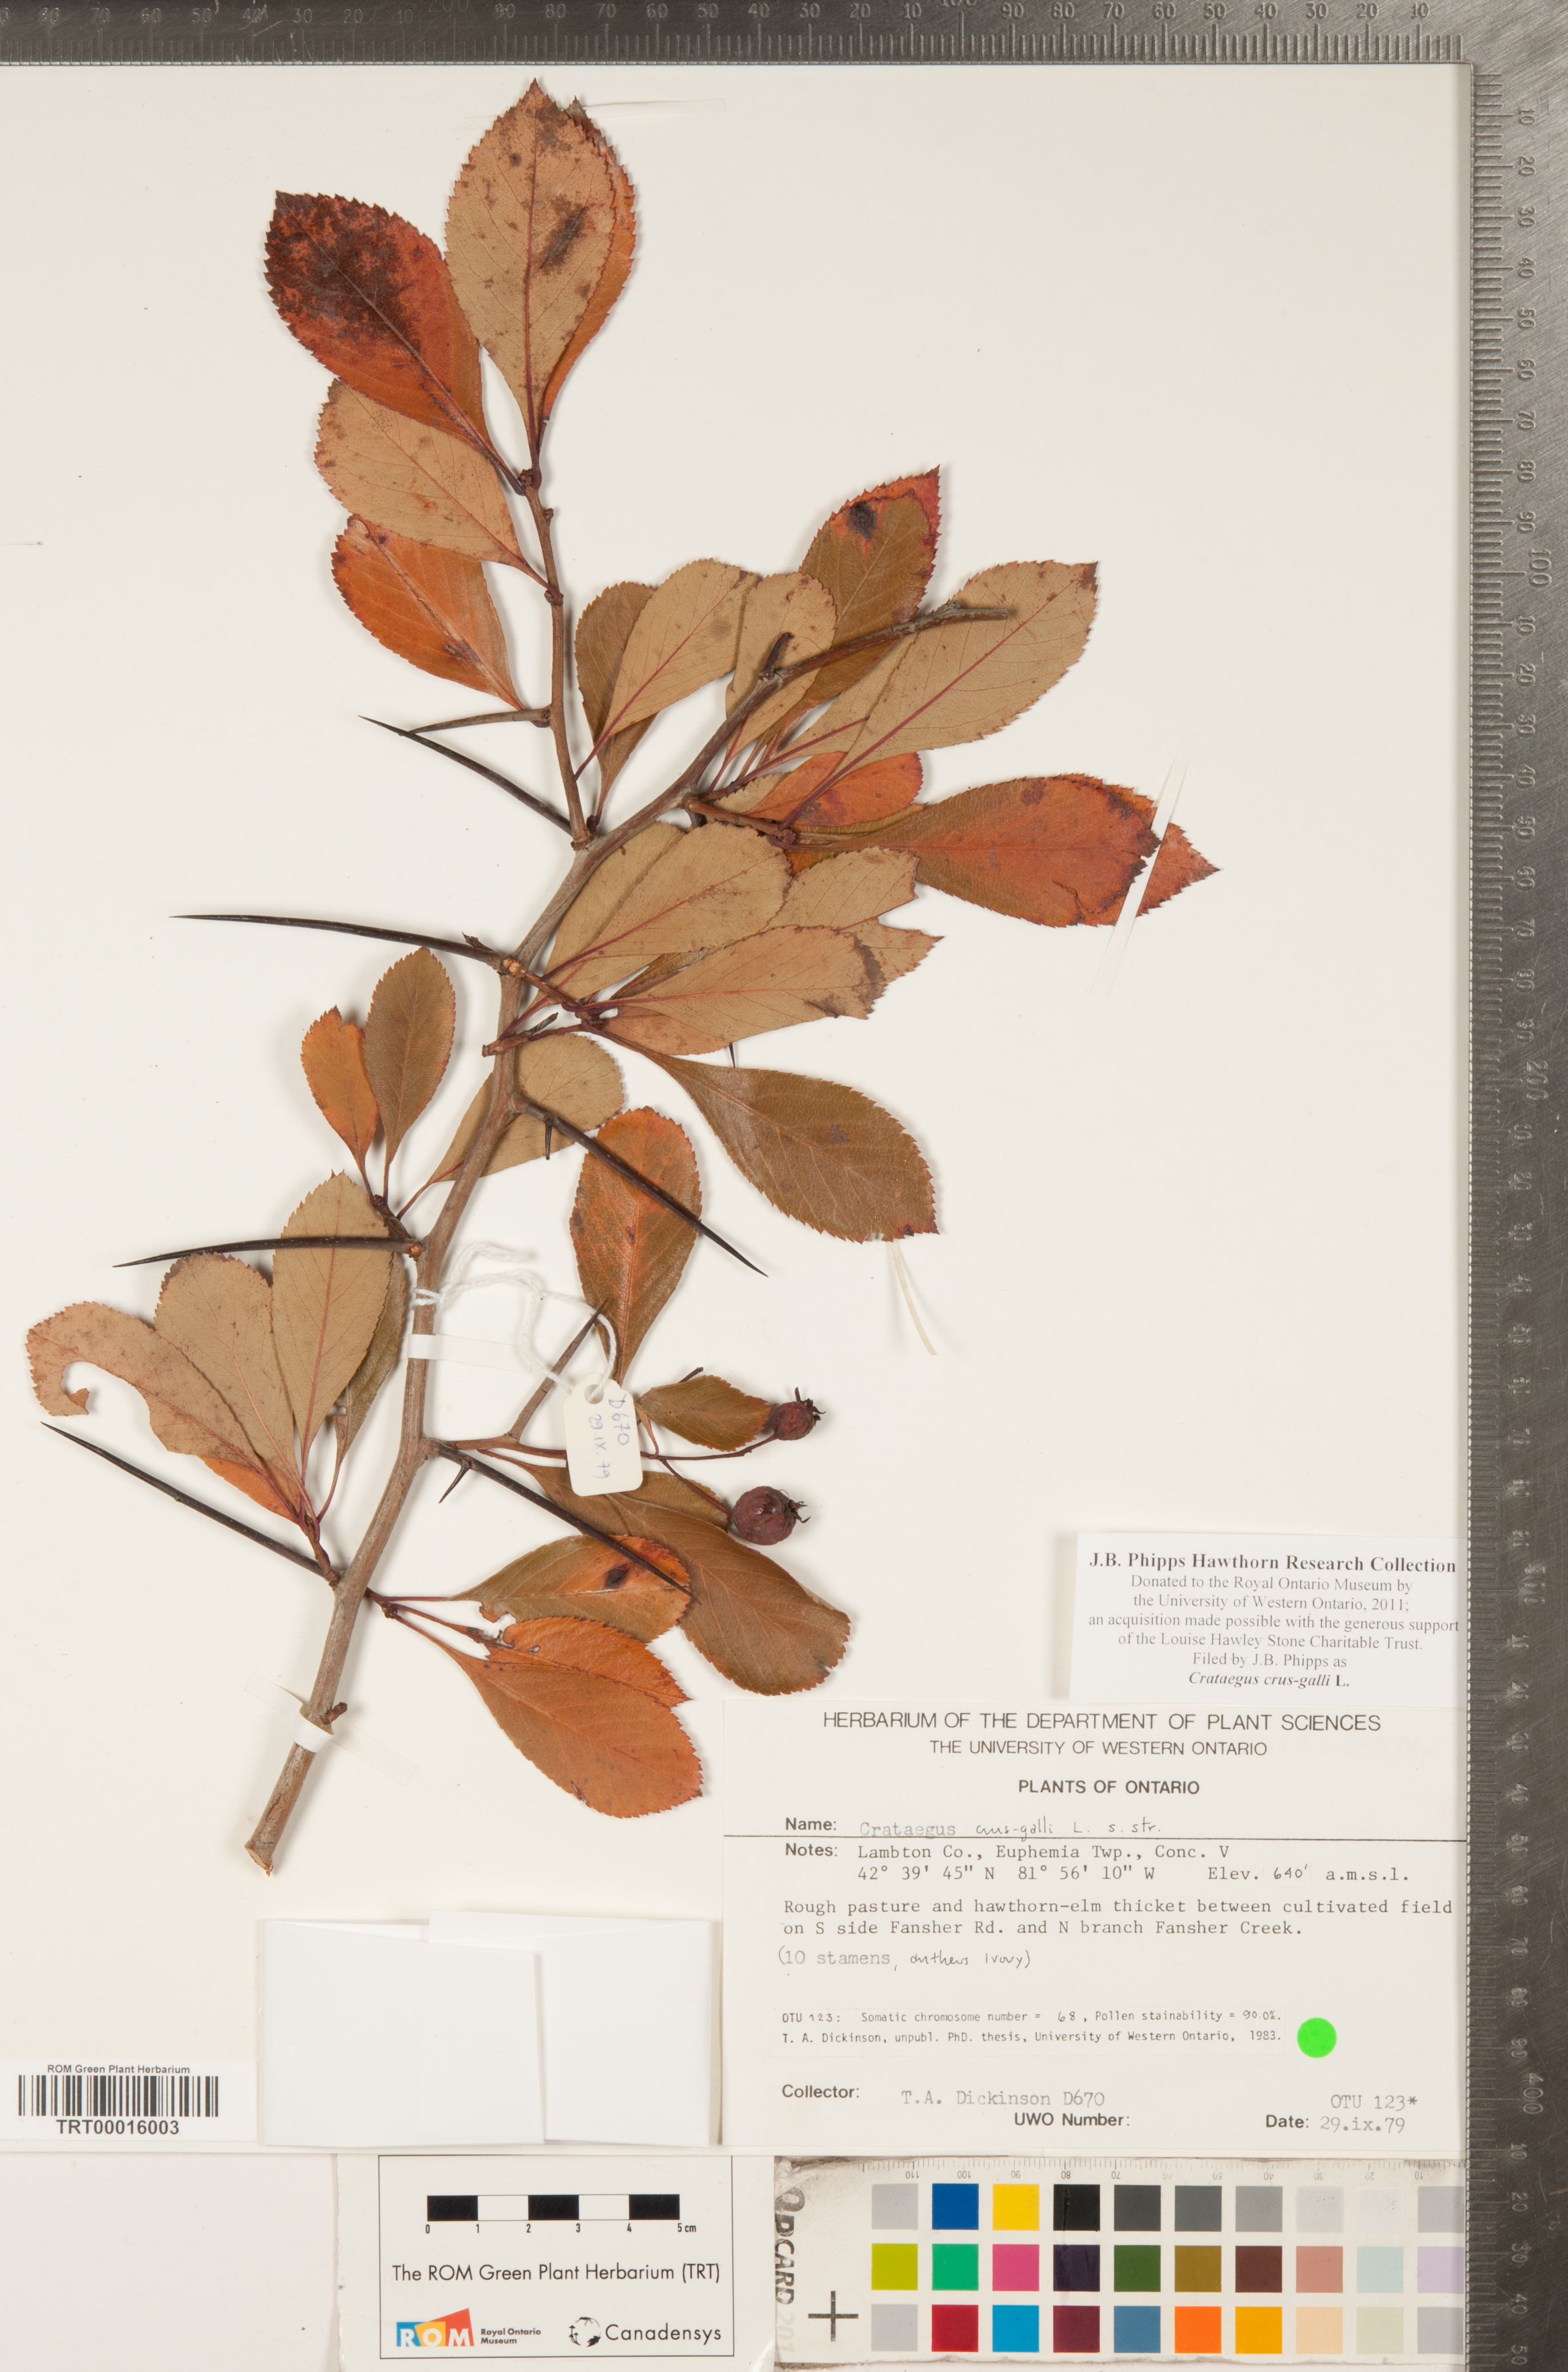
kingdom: Plantae
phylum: Tracheophyta
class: Magnoliopsida
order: Rosales
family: Rosaceae
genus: Crataegus
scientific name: Crataegus crus-galli
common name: Cockspurthorn
